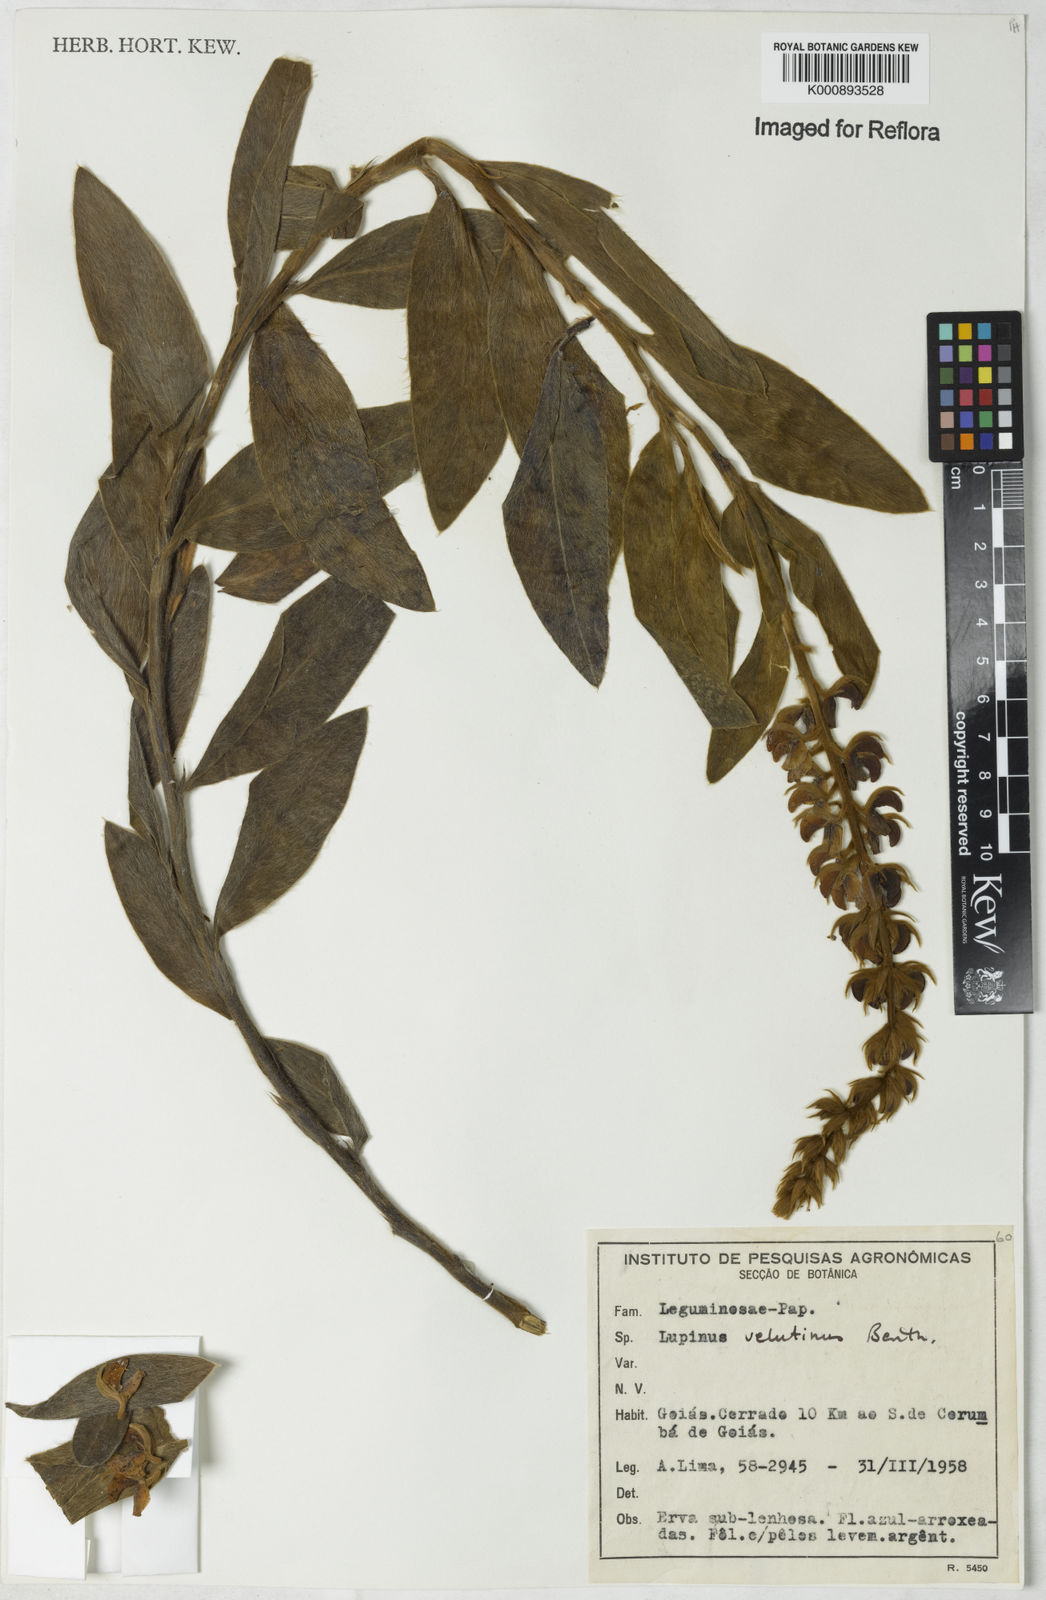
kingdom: Plantae
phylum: Tracheophyta
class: Magnoliopsida
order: Fabales
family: Fabaceae
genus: Lupinus
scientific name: Lupinus velutinus
